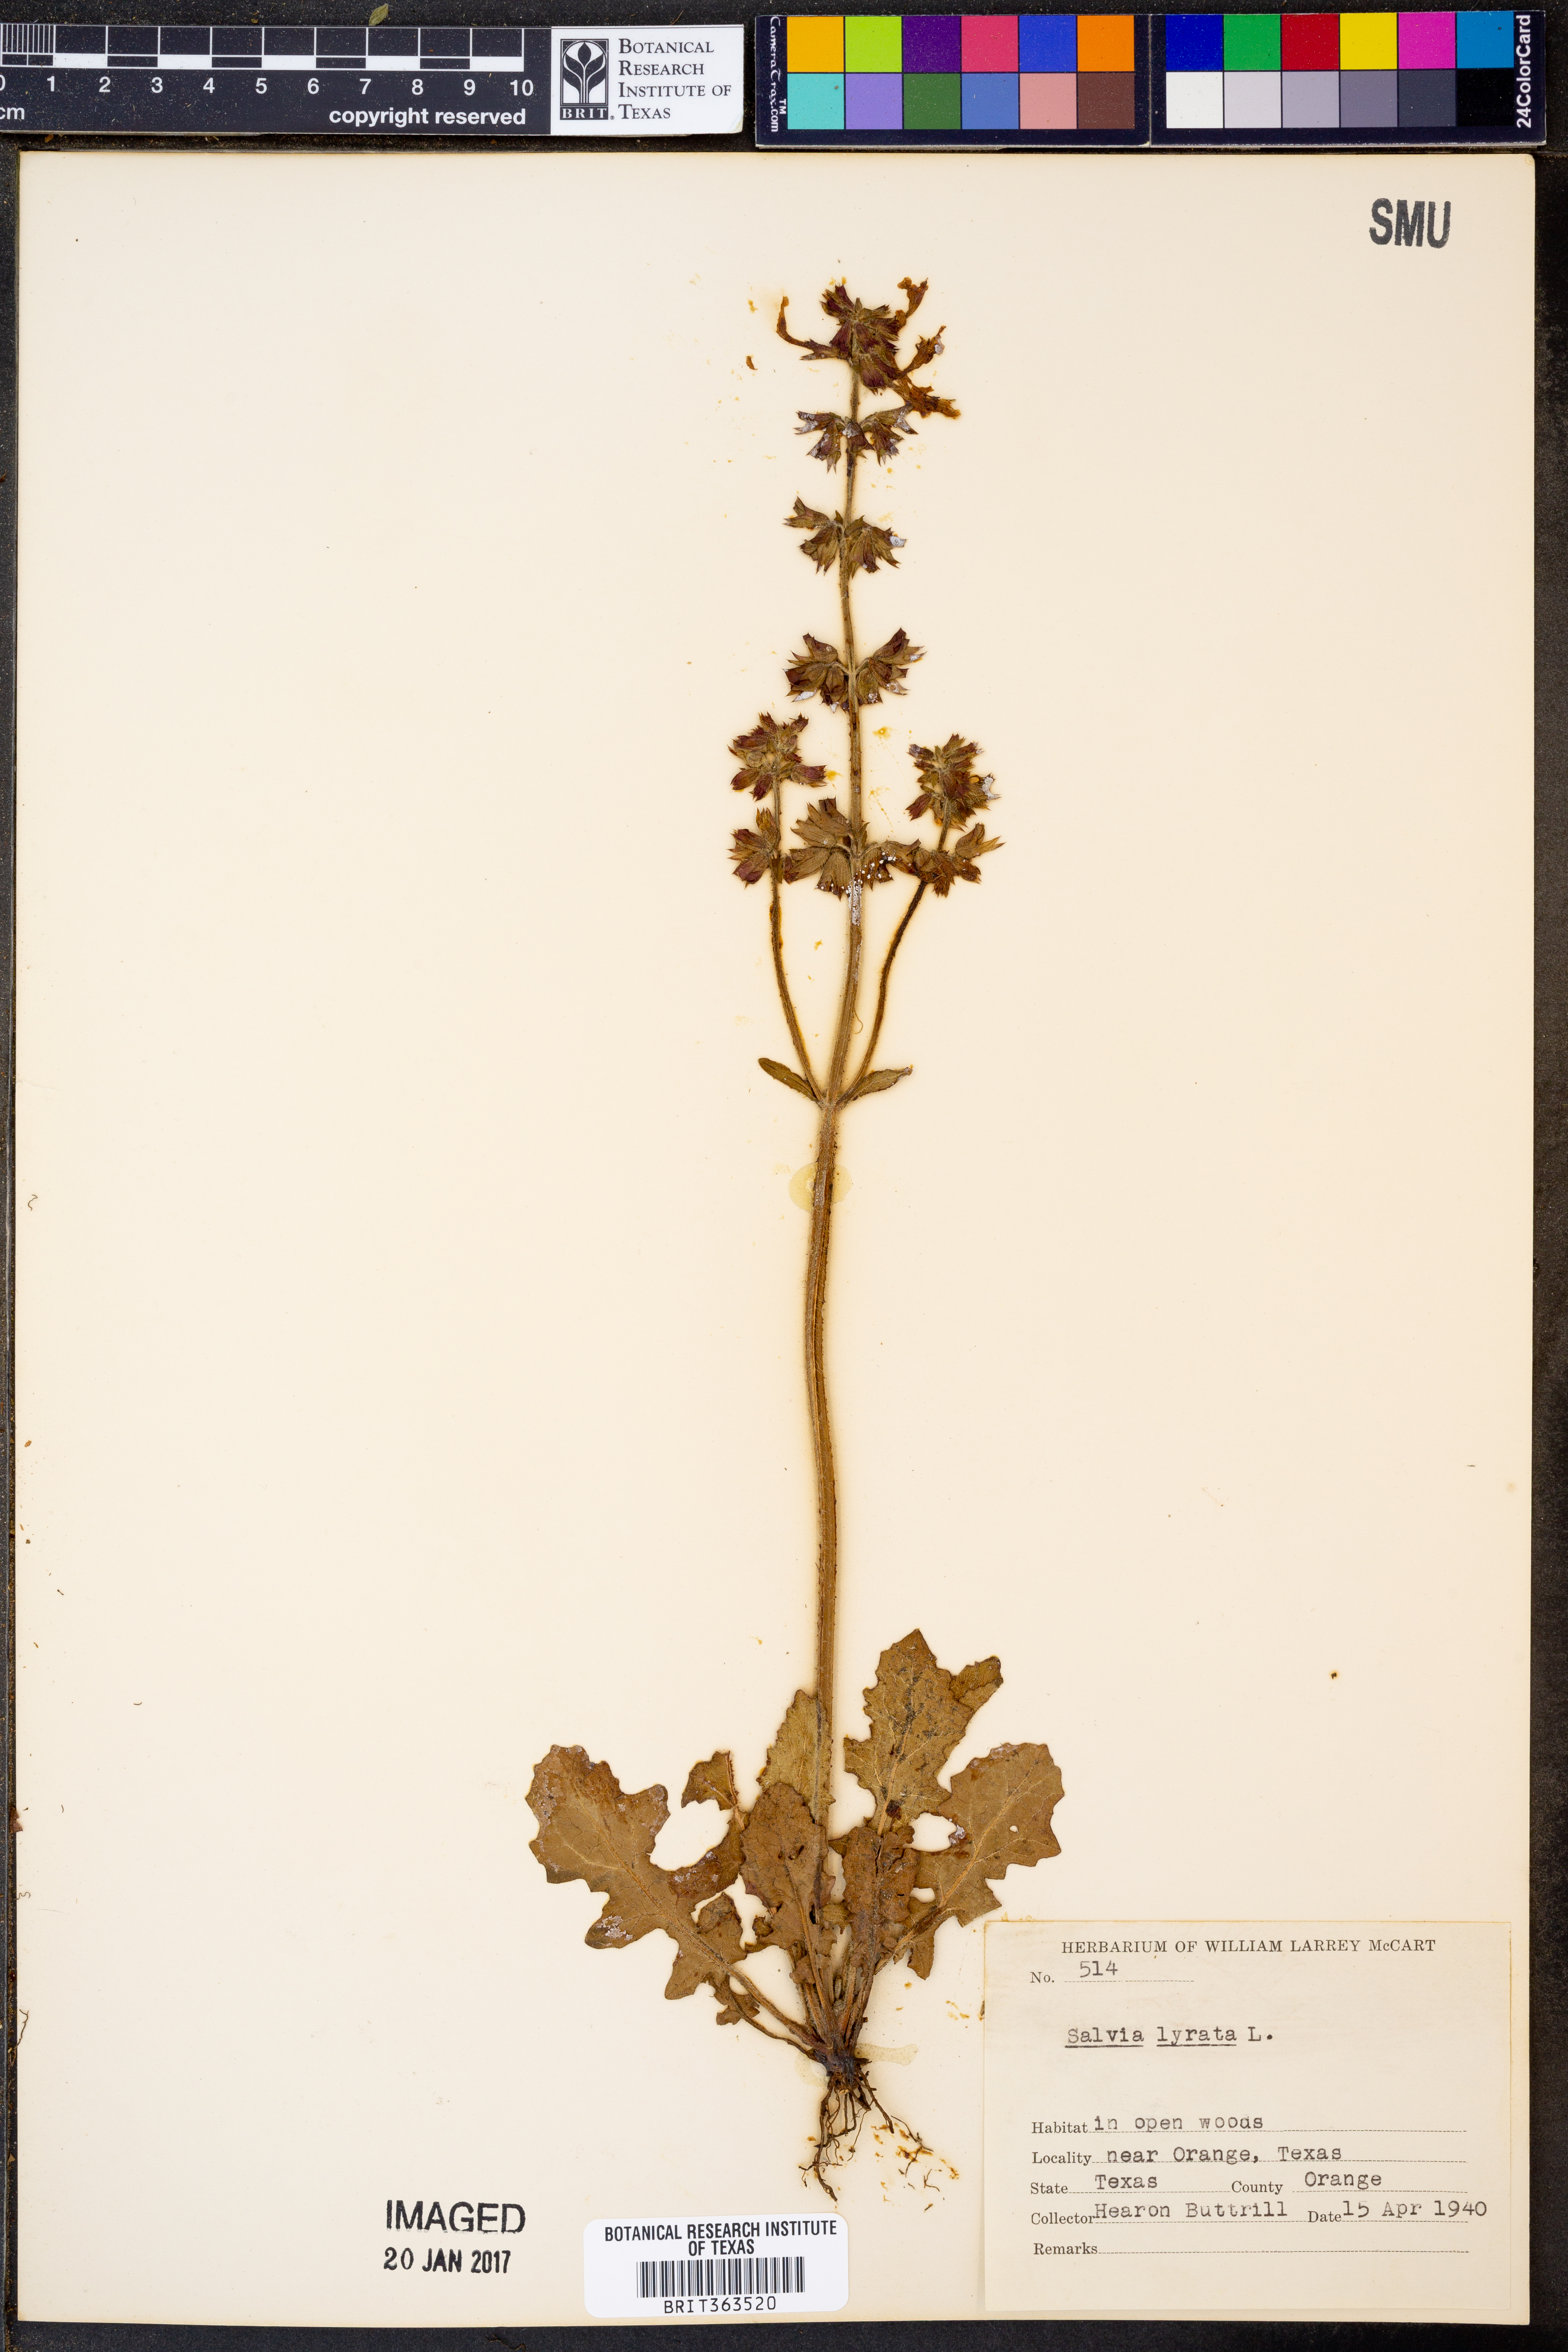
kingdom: Plantae
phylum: Tracheophyta
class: Magnoliopsida
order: Lamiales
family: Lamiaceae
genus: Salvia
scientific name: Salvia lyrata
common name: Cancerweed
